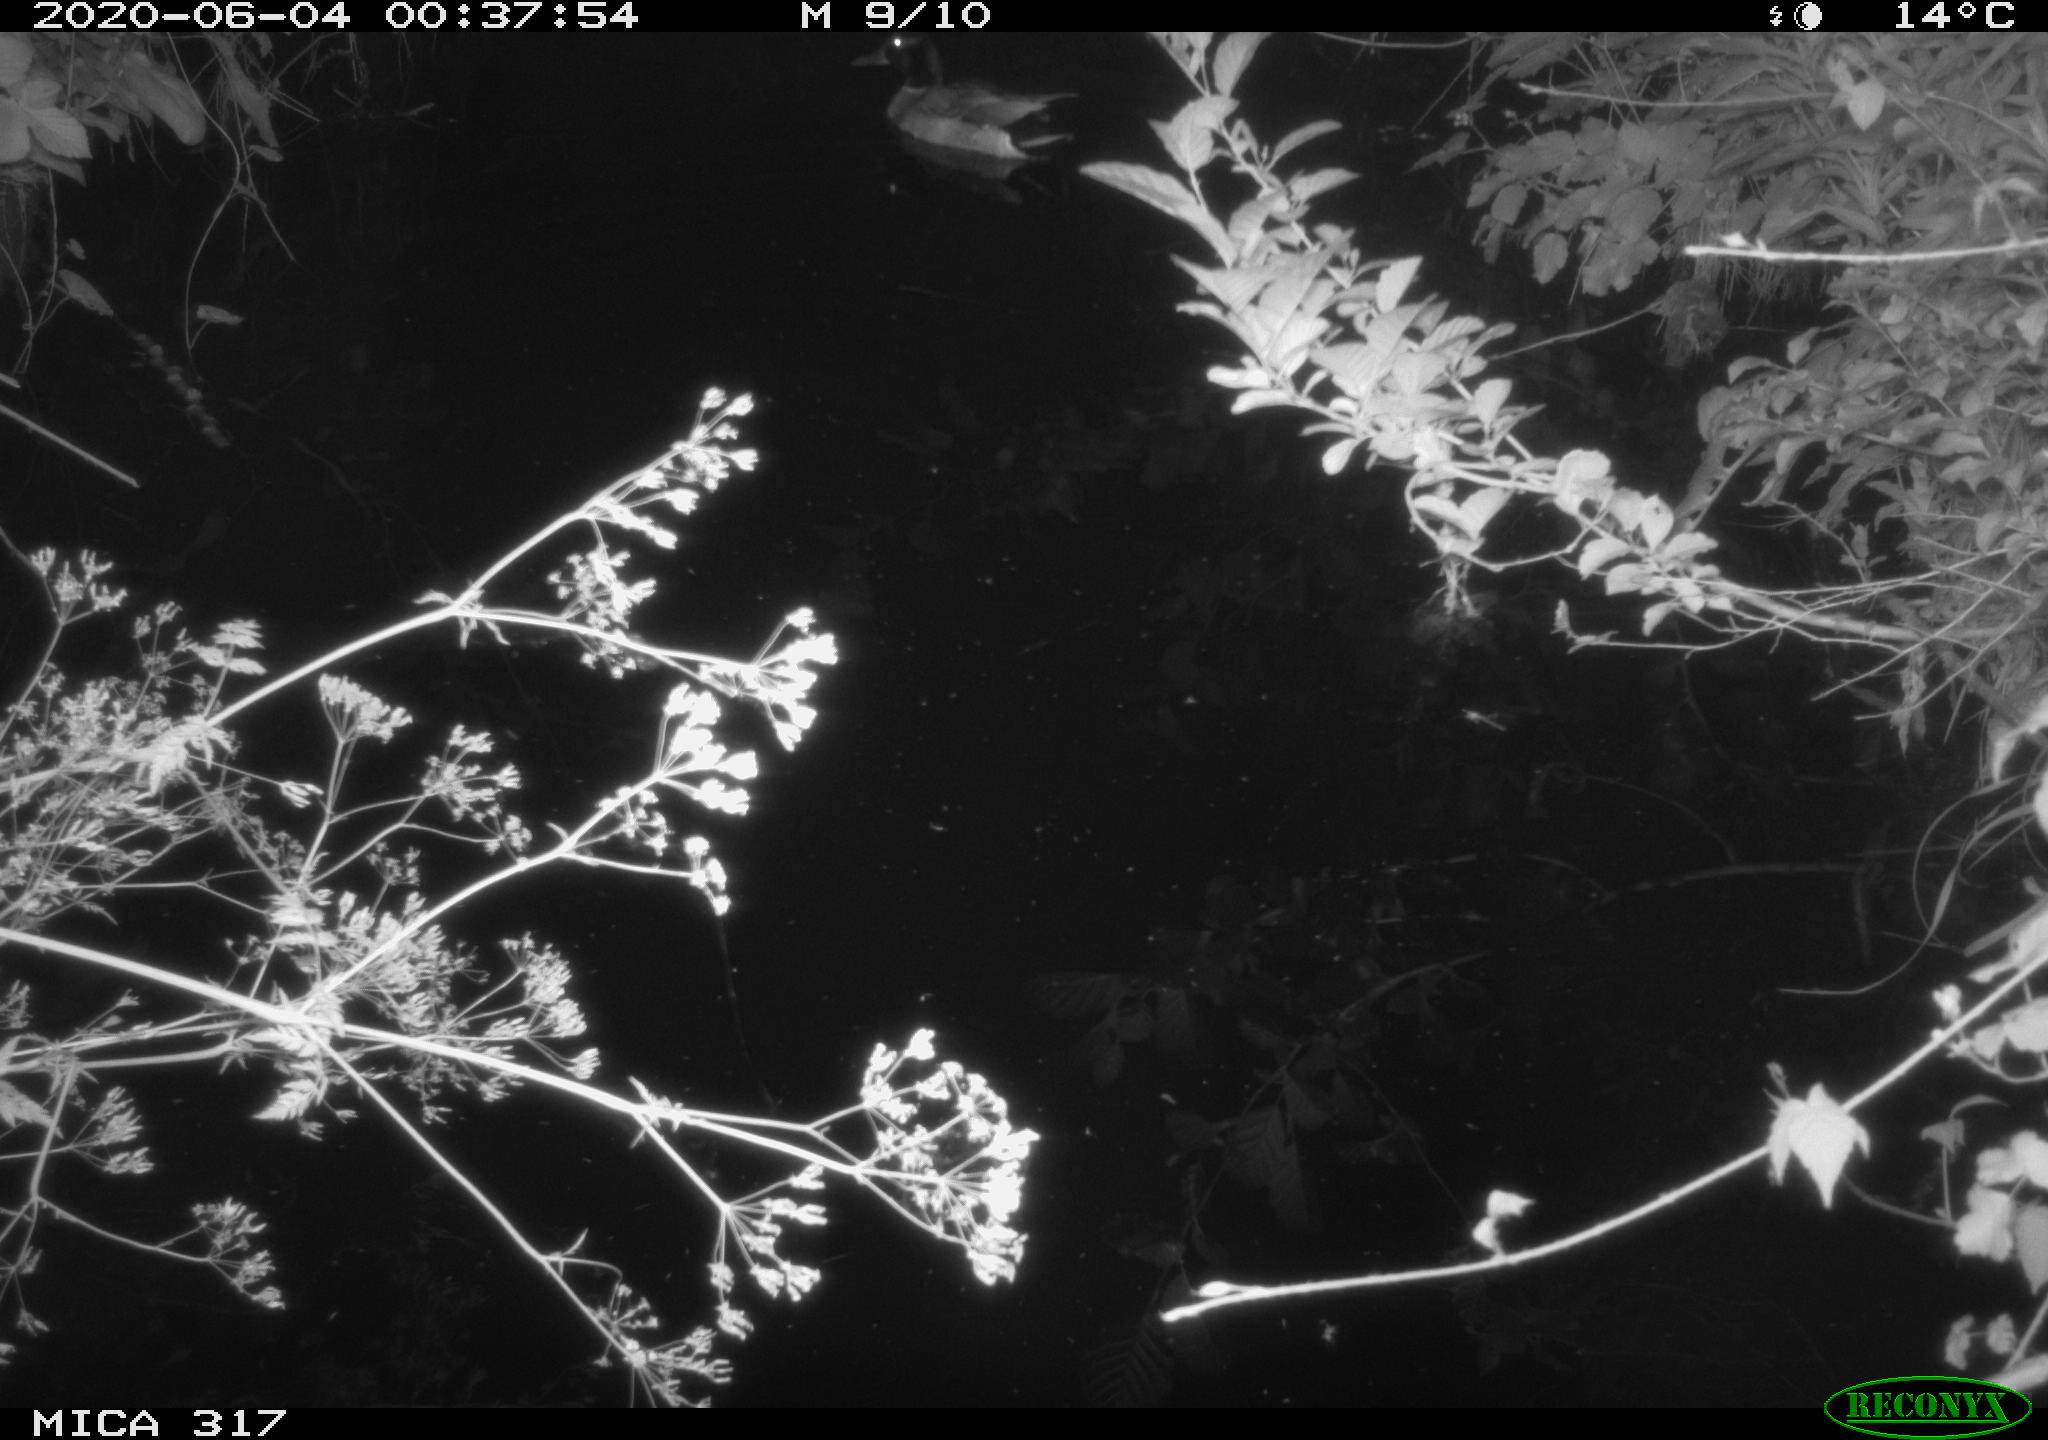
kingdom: Animalia
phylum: Chordata
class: Aves
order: Anseriformes
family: Anatidae
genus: Anas
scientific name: Anas platyrhynchos
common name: Mallard
